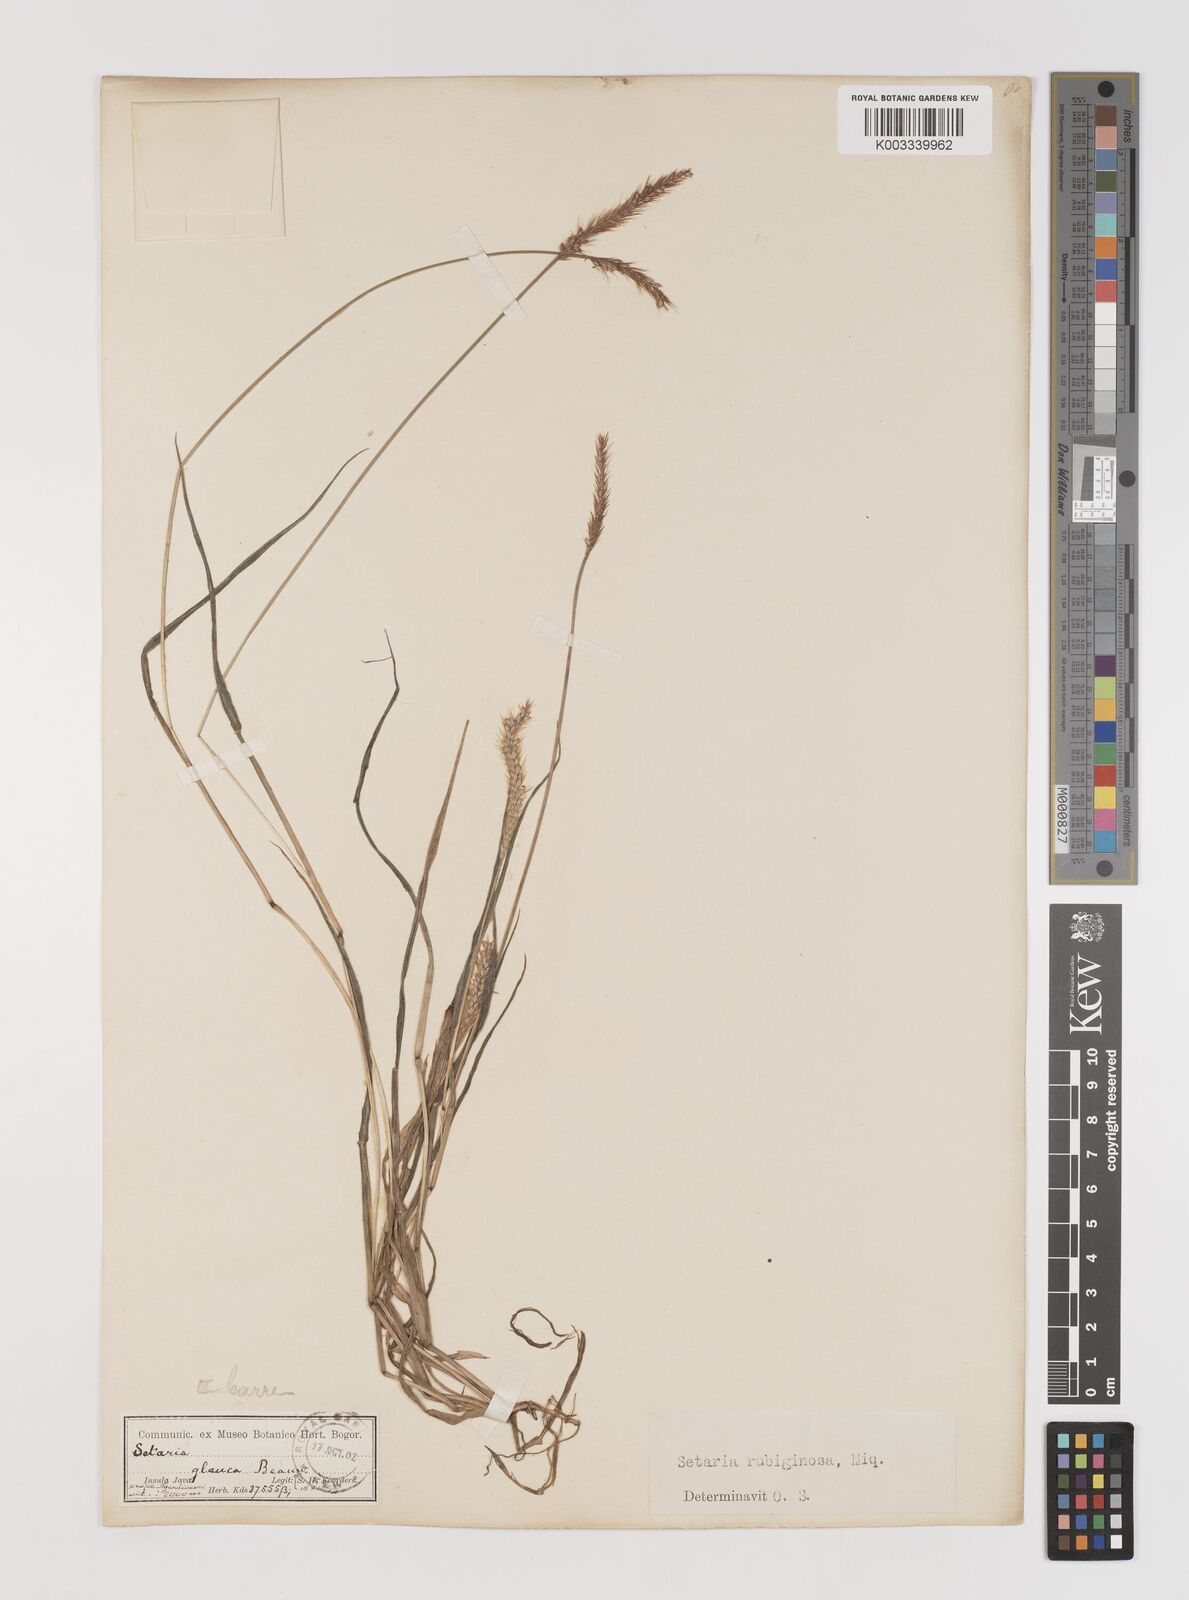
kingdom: Plantae
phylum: Tracheophyta
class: Liliopsida
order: Poales
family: Poaceae
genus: Setaria
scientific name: Setaria parviflora
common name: Knotroot bristle-grass
